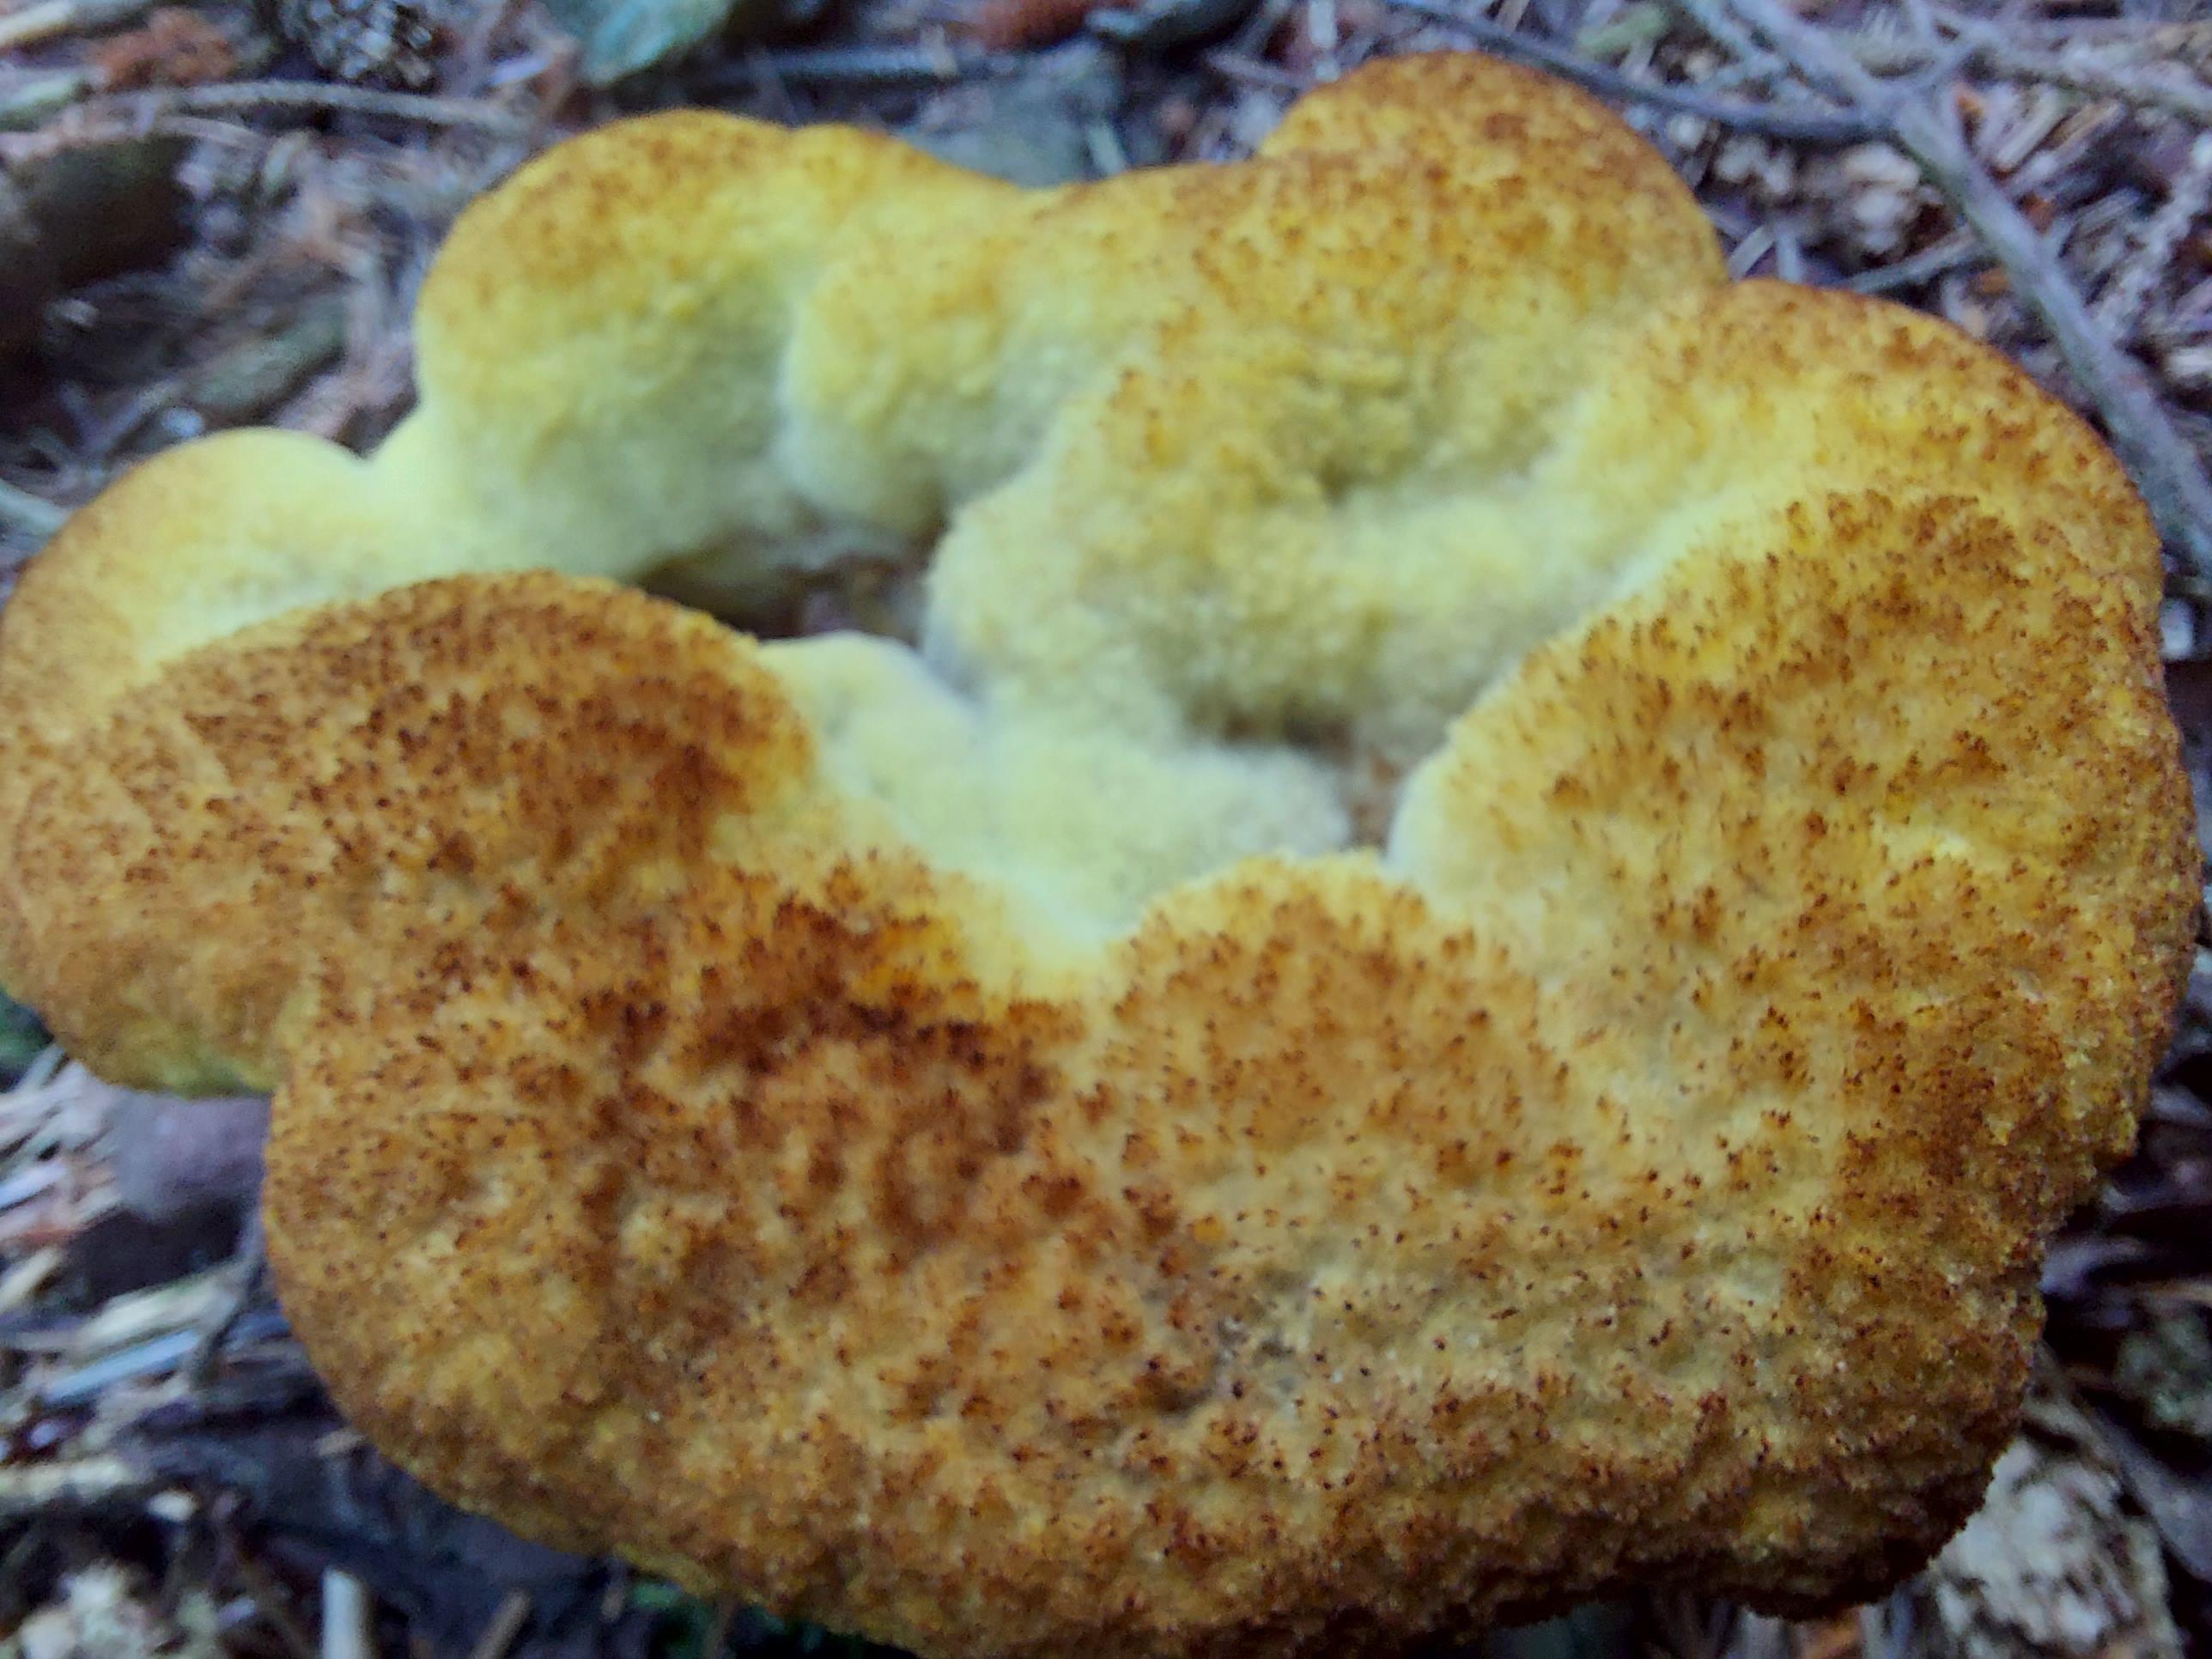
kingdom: Fungi
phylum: Basidiomycota
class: Agaricomycetes
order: Polyporales
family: Laetiporaceae
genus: Phaeolus
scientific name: Phaeolus schweinitzii
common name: brunporesvamp
